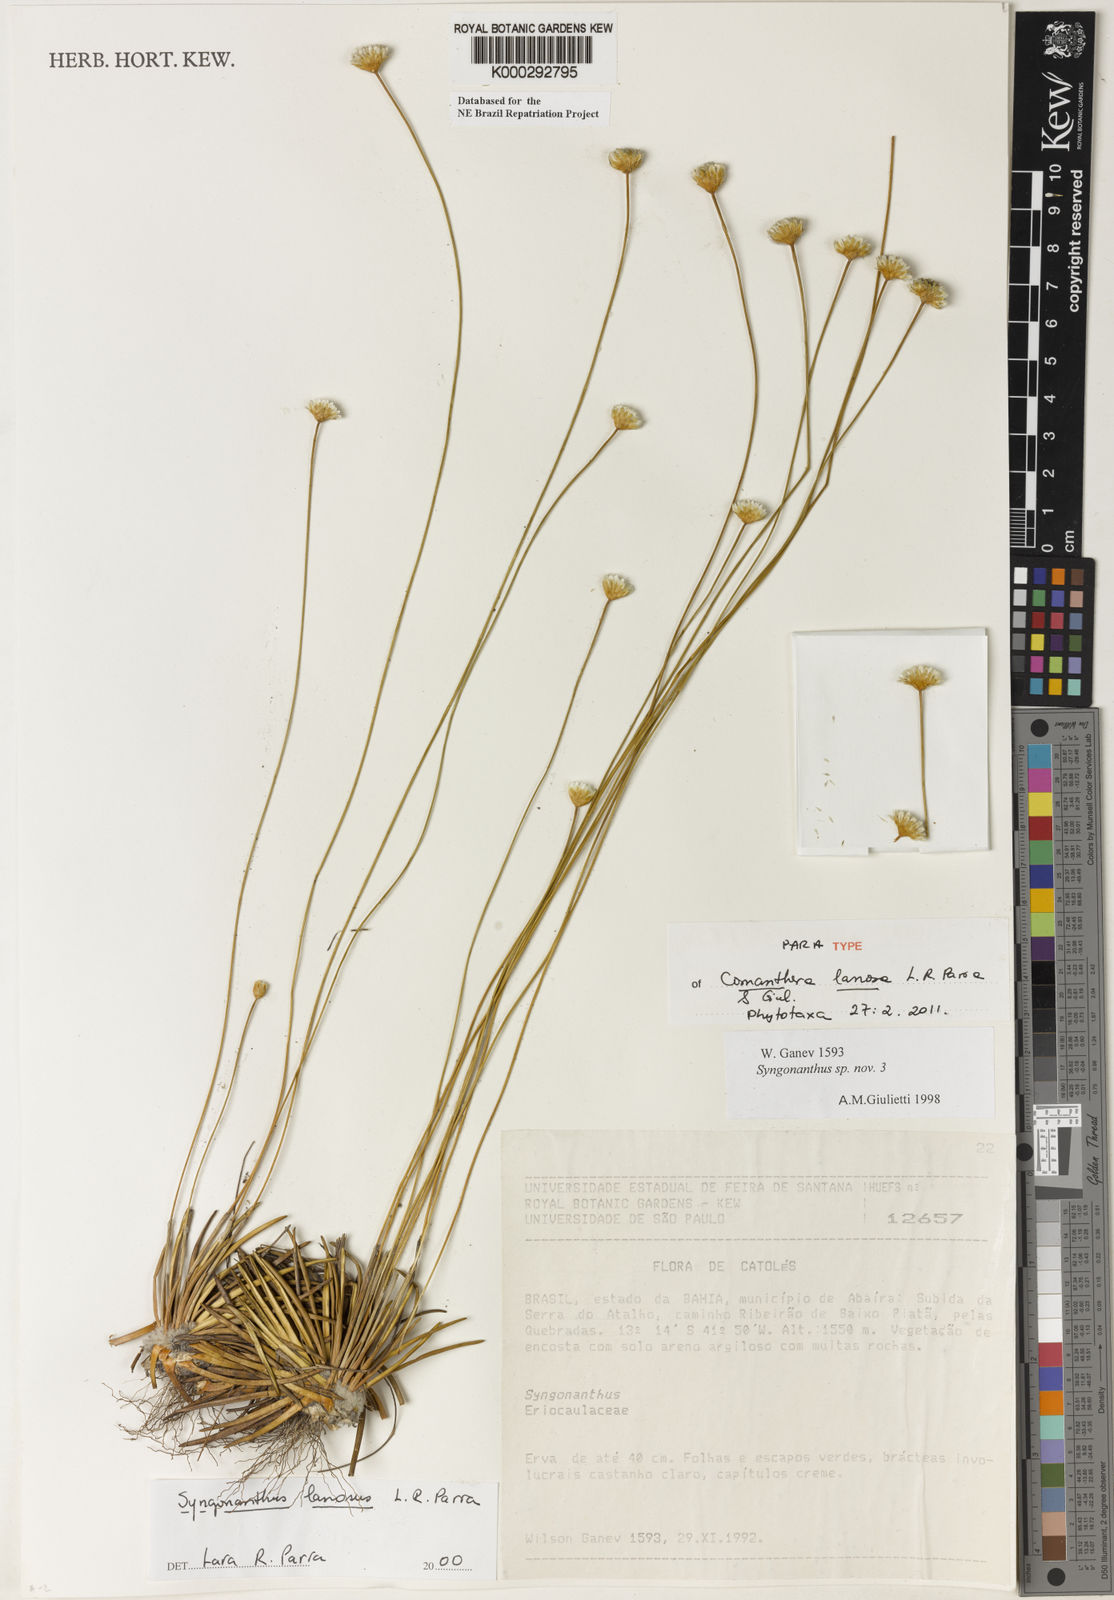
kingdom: Plantae
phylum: Tracheophyta
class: Liliopsida
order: Poales
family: Eriocaulaceae
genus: Comanthera
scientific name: Comanthera lanosa
